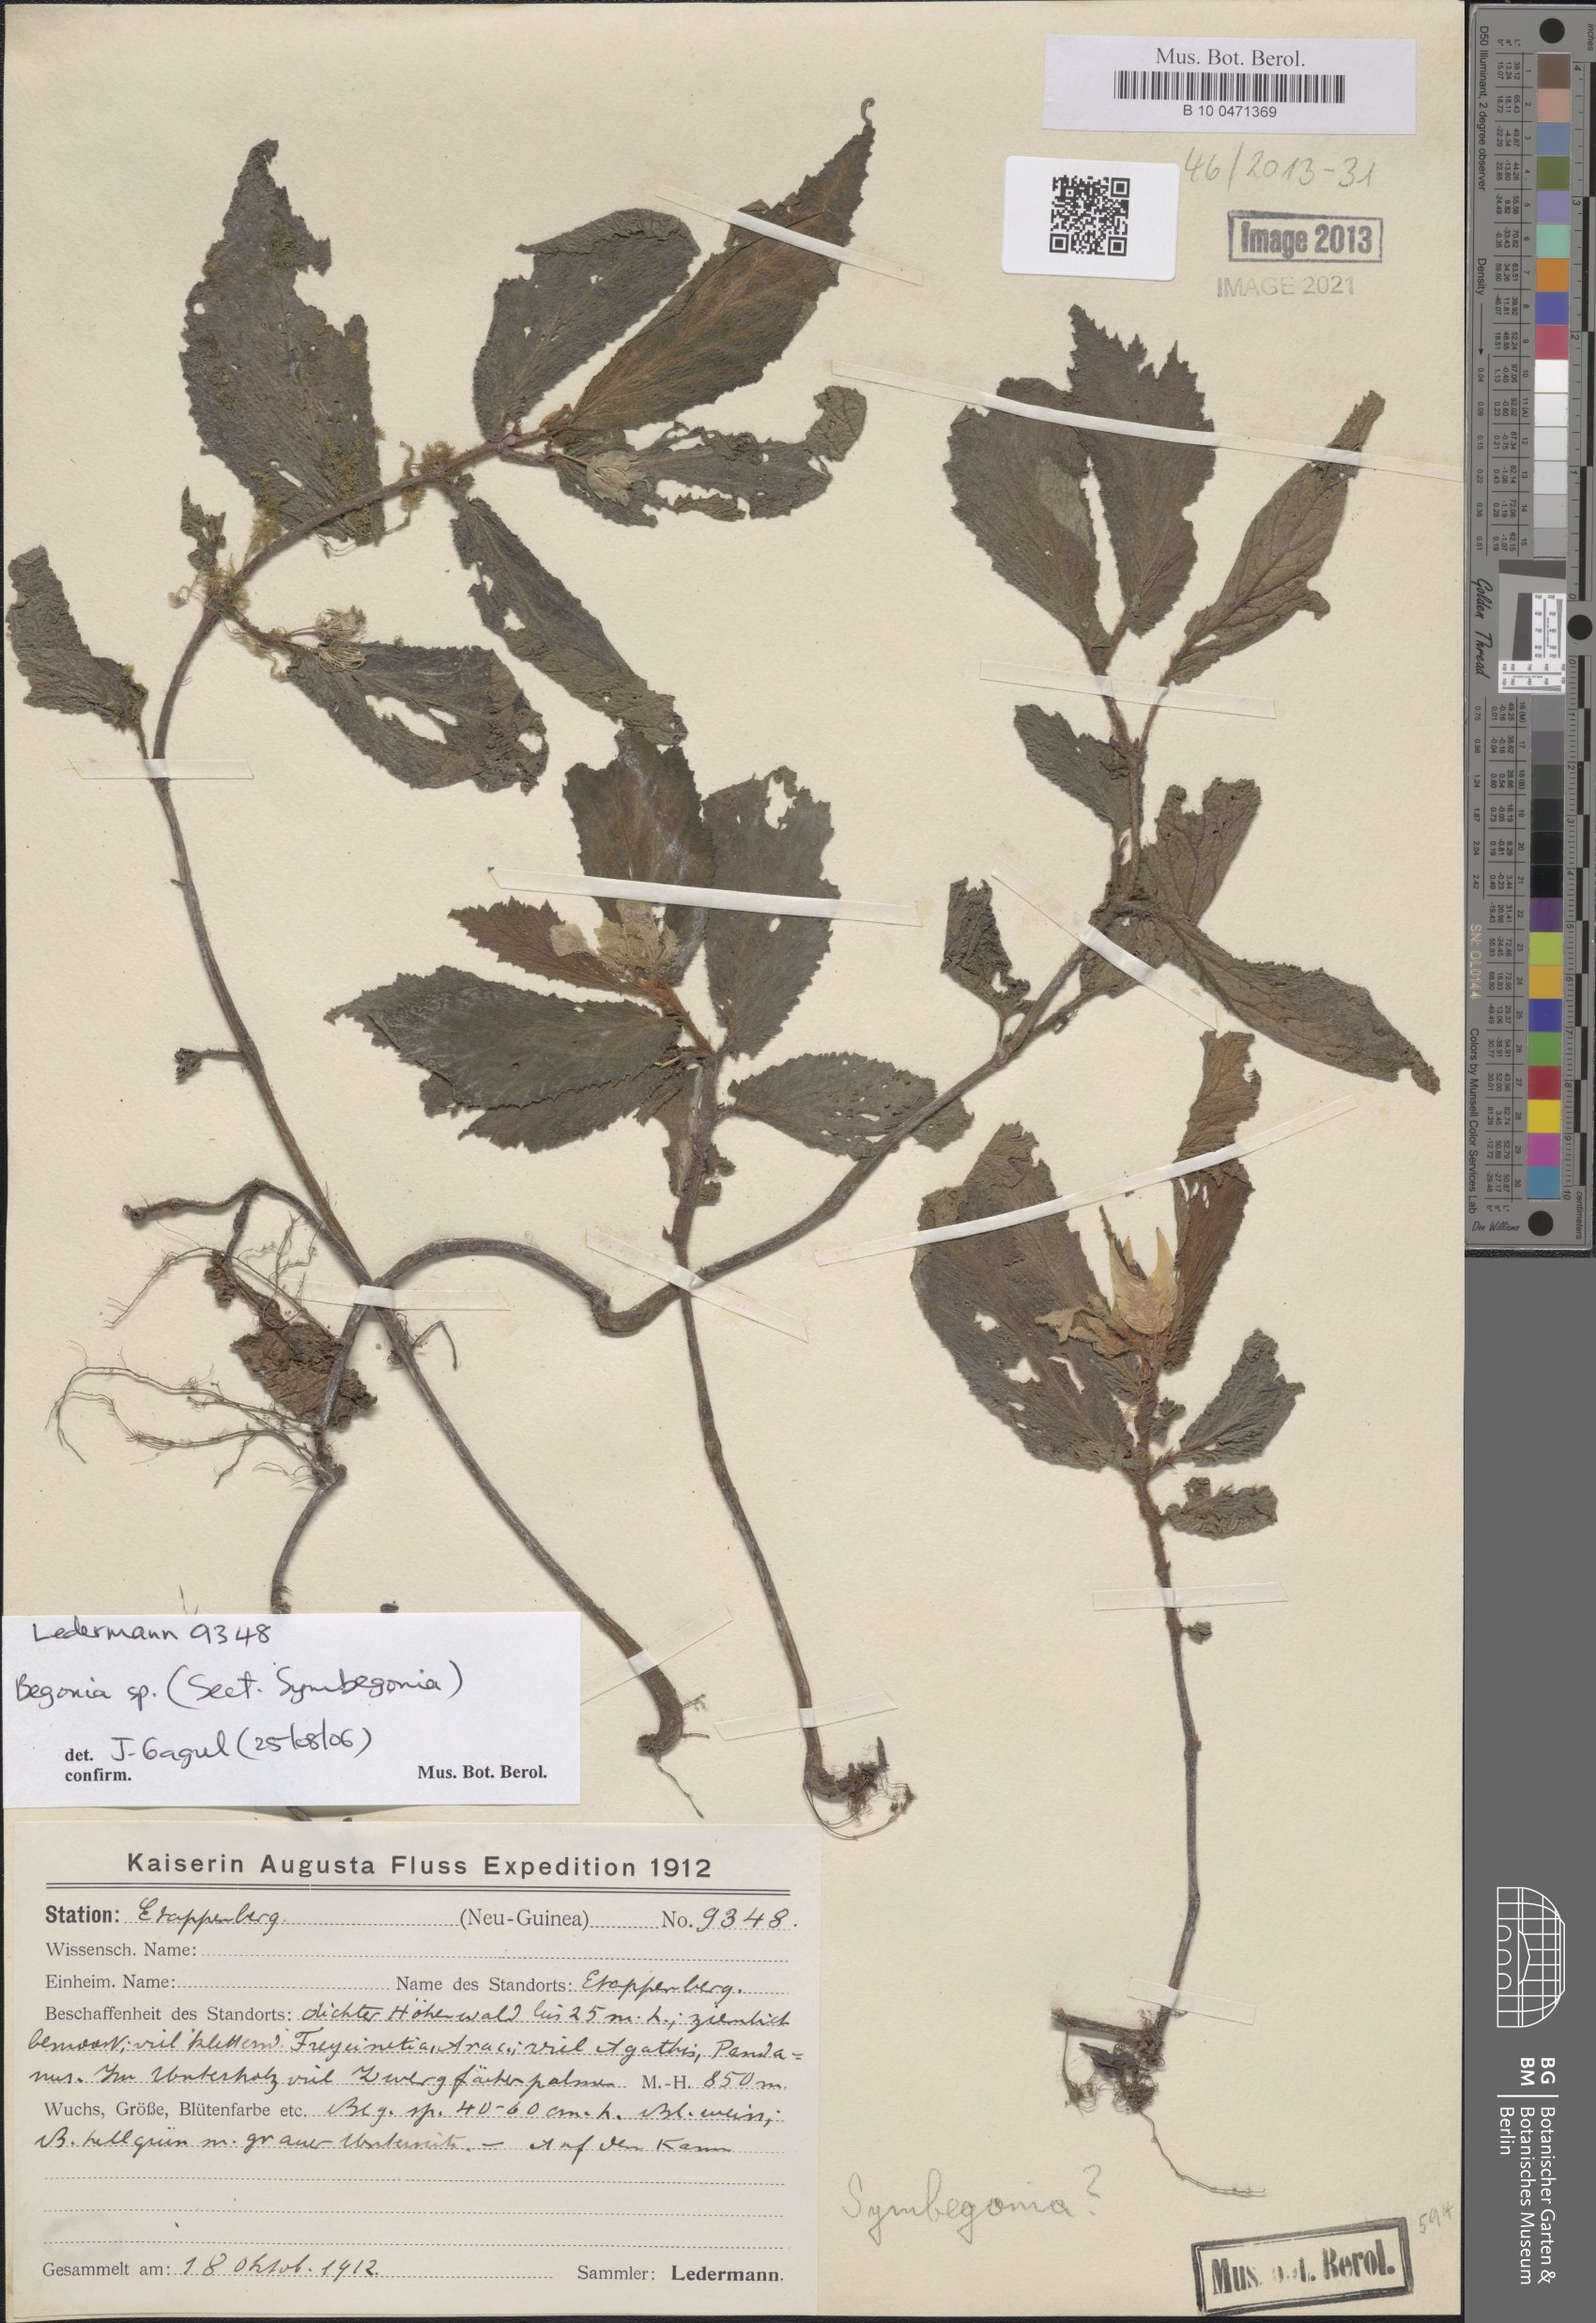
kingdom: Plantae
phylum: Tracheophyta
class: Magnoliopsida
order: Cucurbitales
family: Begoniaceae
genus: Begonia
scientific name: Begonia
